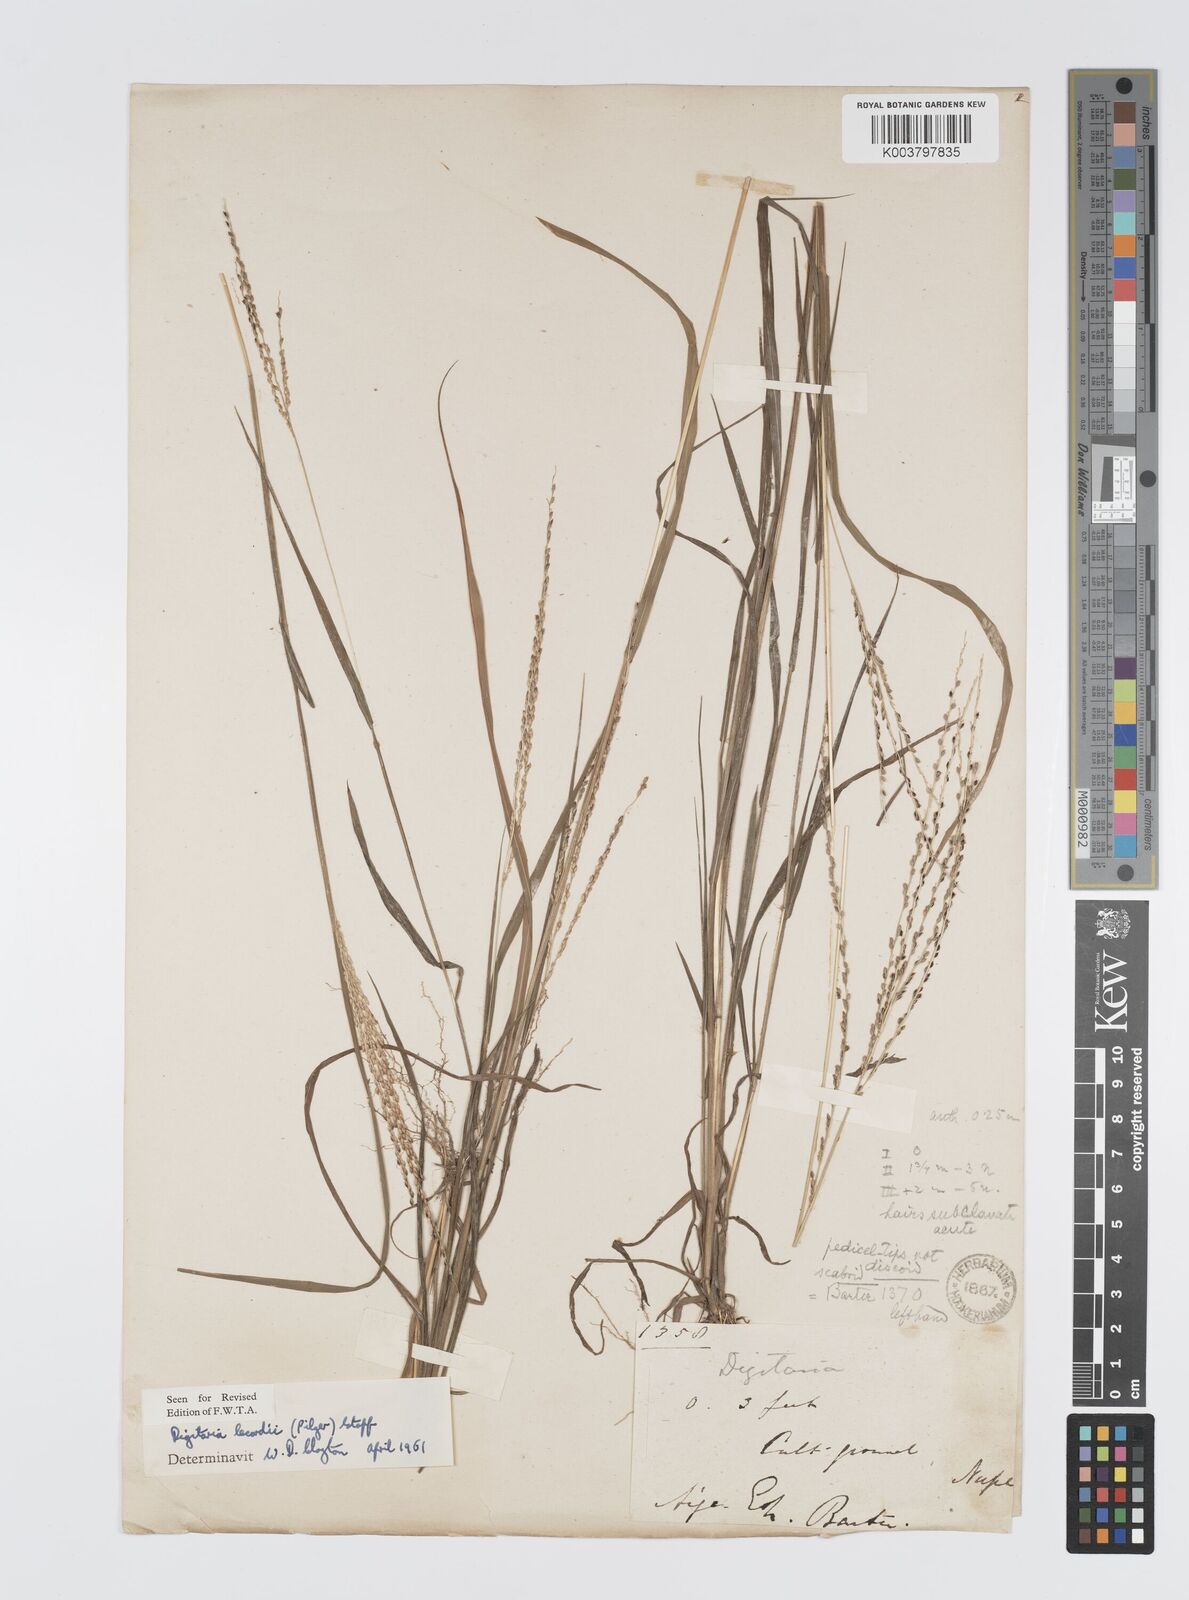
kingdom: Plantae
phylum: Tracheophyta
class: Liliopsida
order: Poales
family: Poaceae
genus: Digitaria
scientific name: Digitaria argillacea
